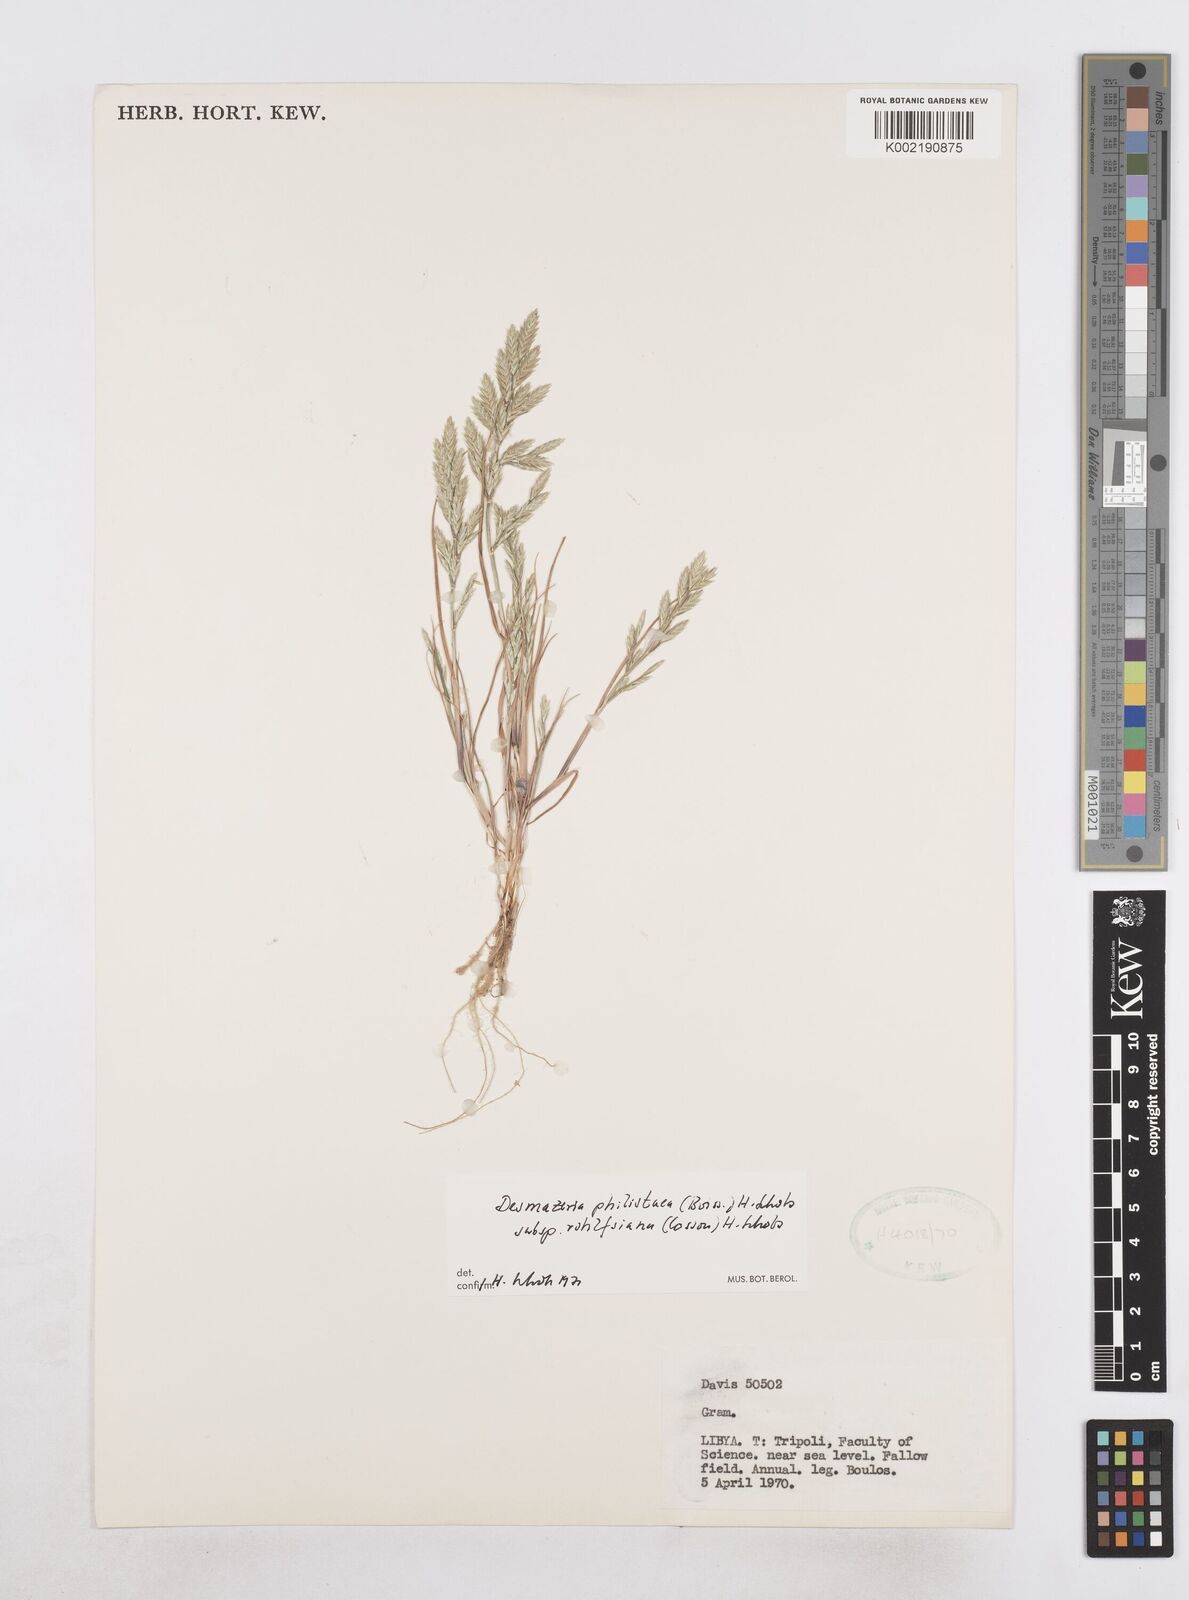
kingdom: Plantae
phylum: Tracheophyta
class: Liliopsida
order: Poales
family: Poaceae
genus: Desmazeria
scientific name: Desmazeria philistaea
